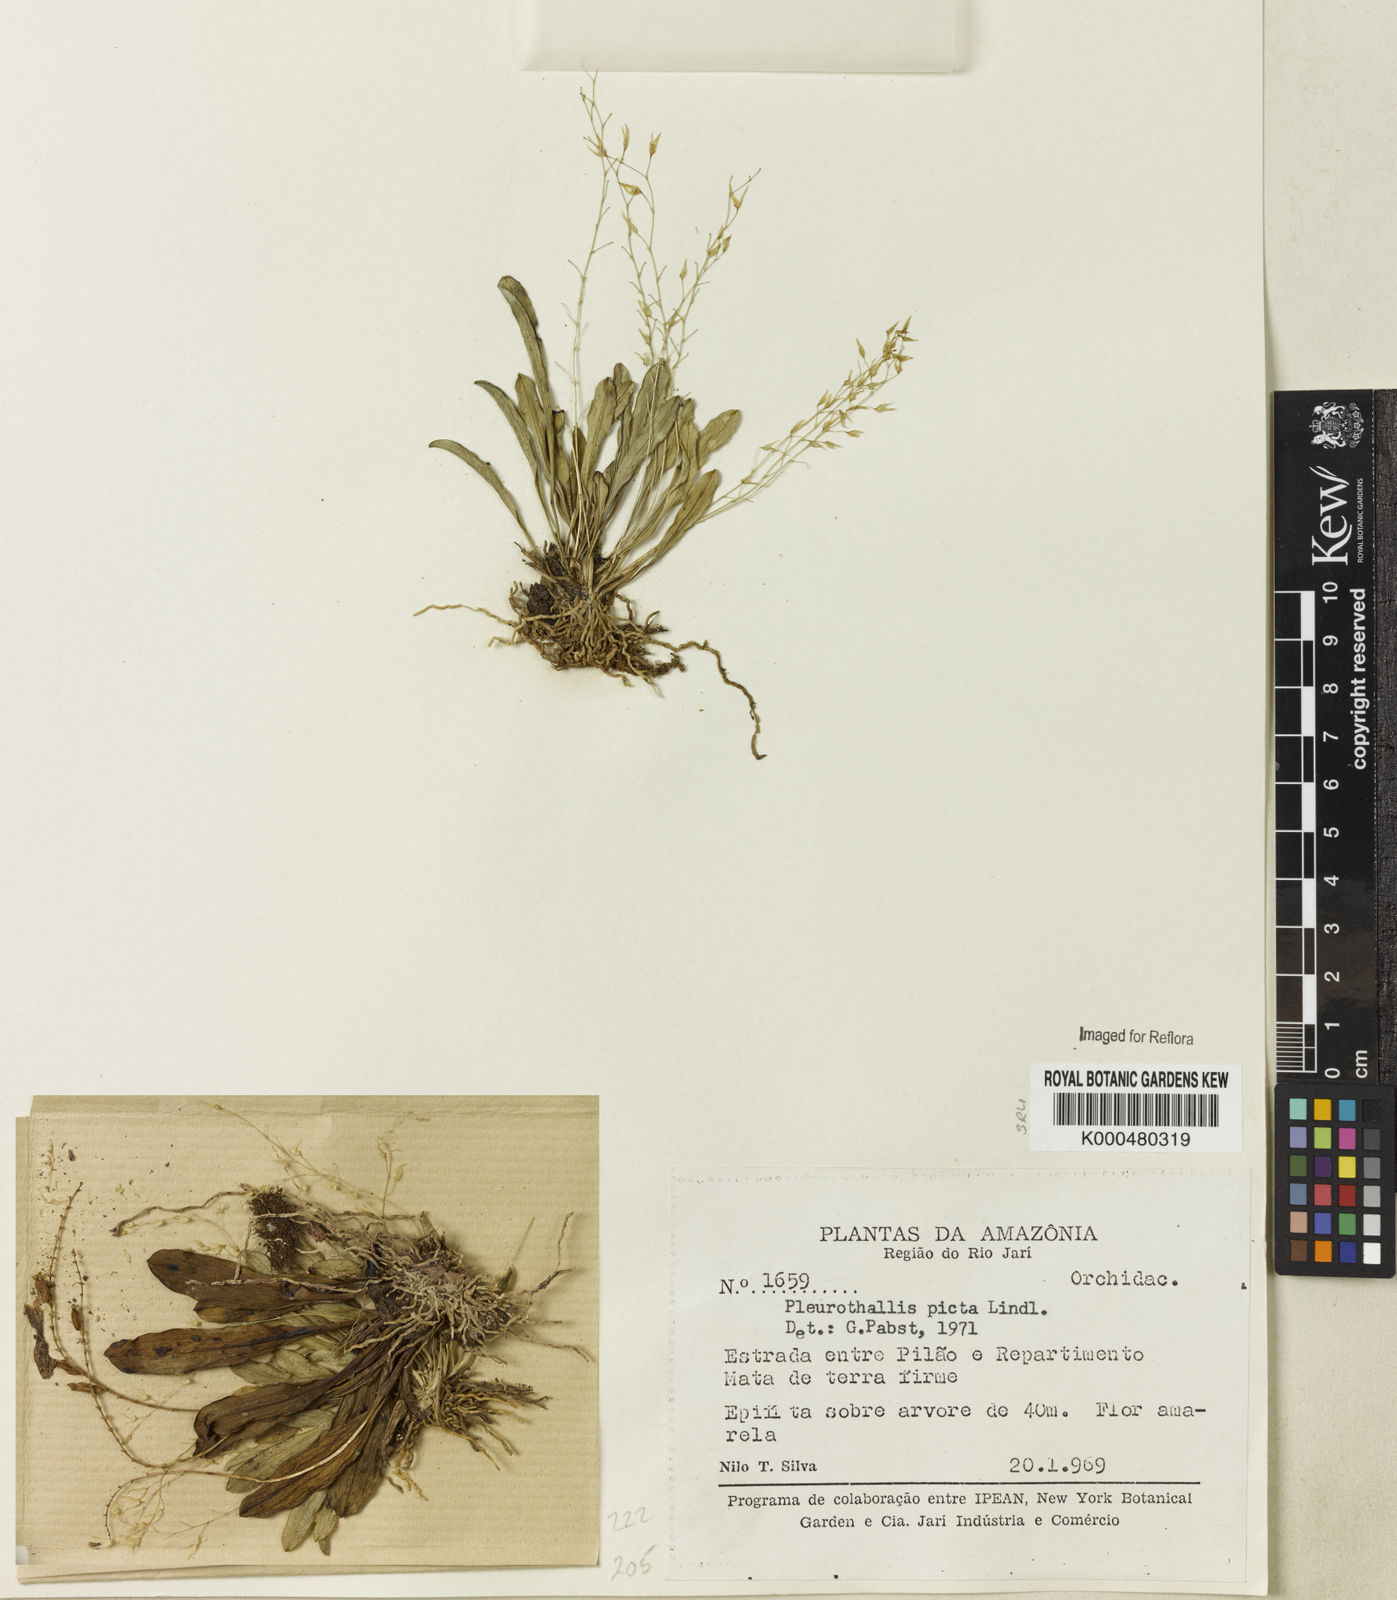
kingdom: Plantae
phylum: Tracheophyta
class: Liliopsida
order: Asparagales
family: Orchidaceae
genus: Specklinia
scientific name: Specklinia picta
